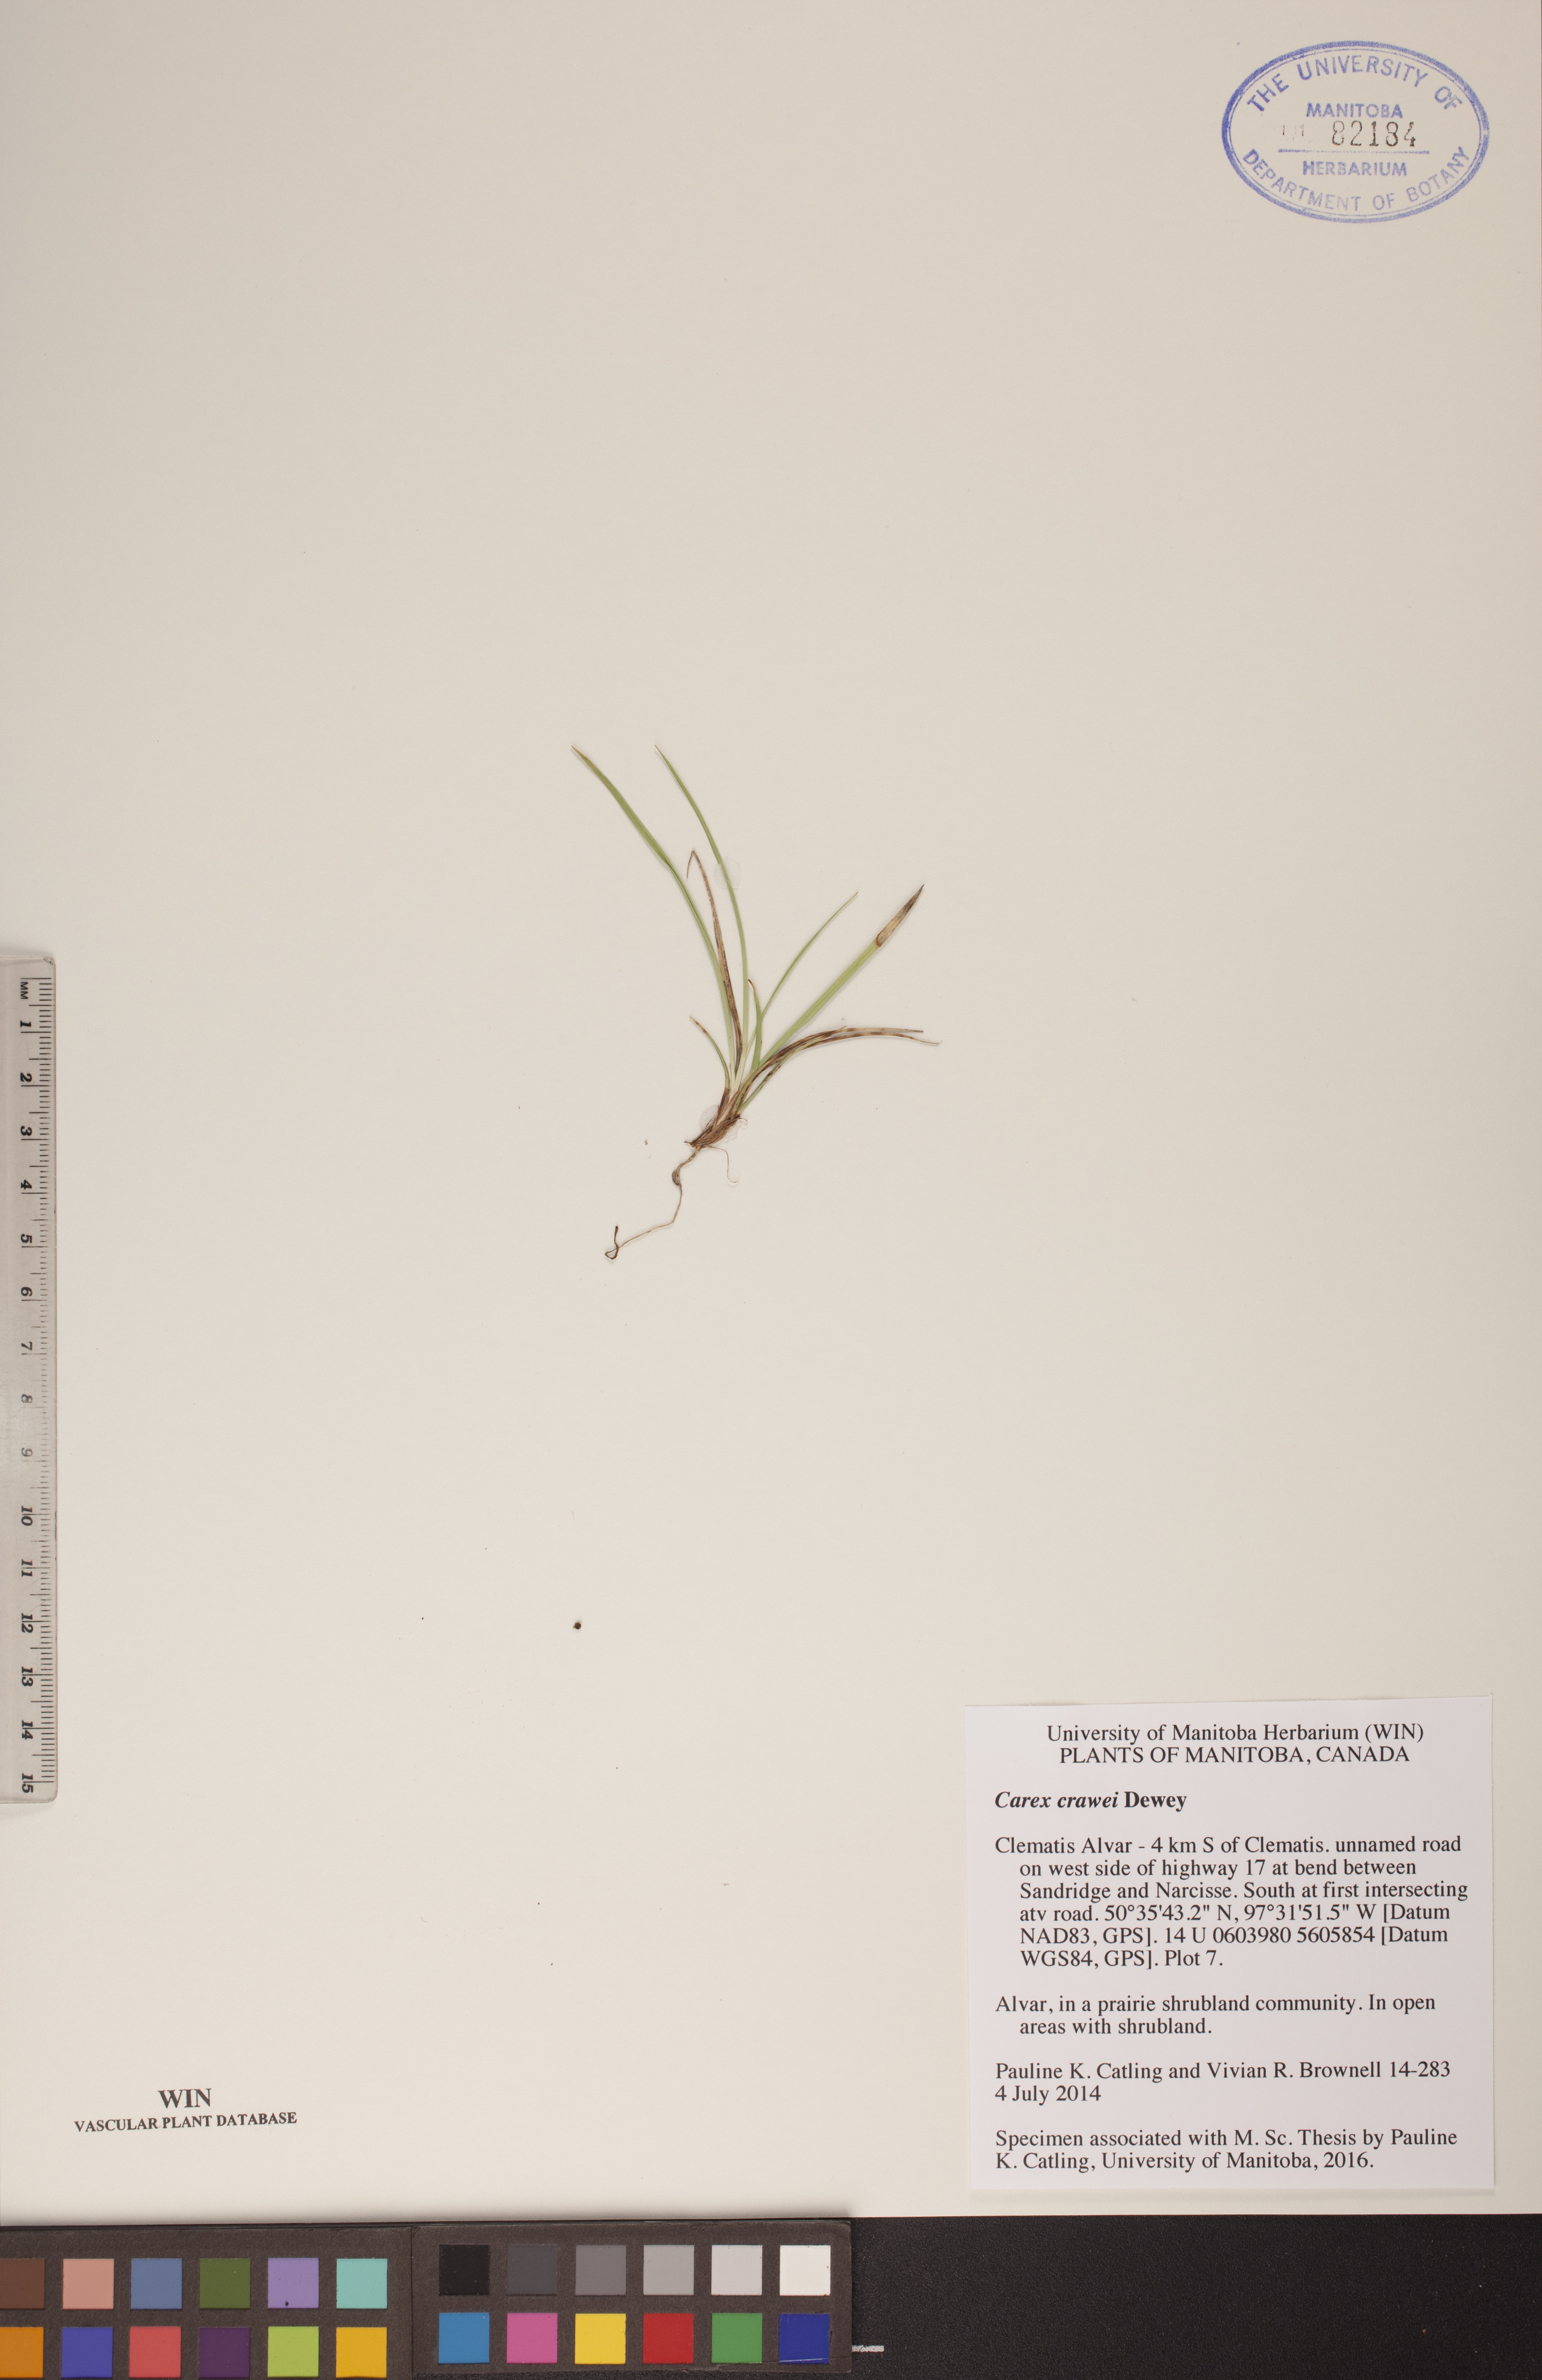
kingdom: Plantae
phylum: Tracheophyta
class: Liliopsida
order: Poales
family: Cyperaceae
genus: Carex
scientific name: Carex crawei
